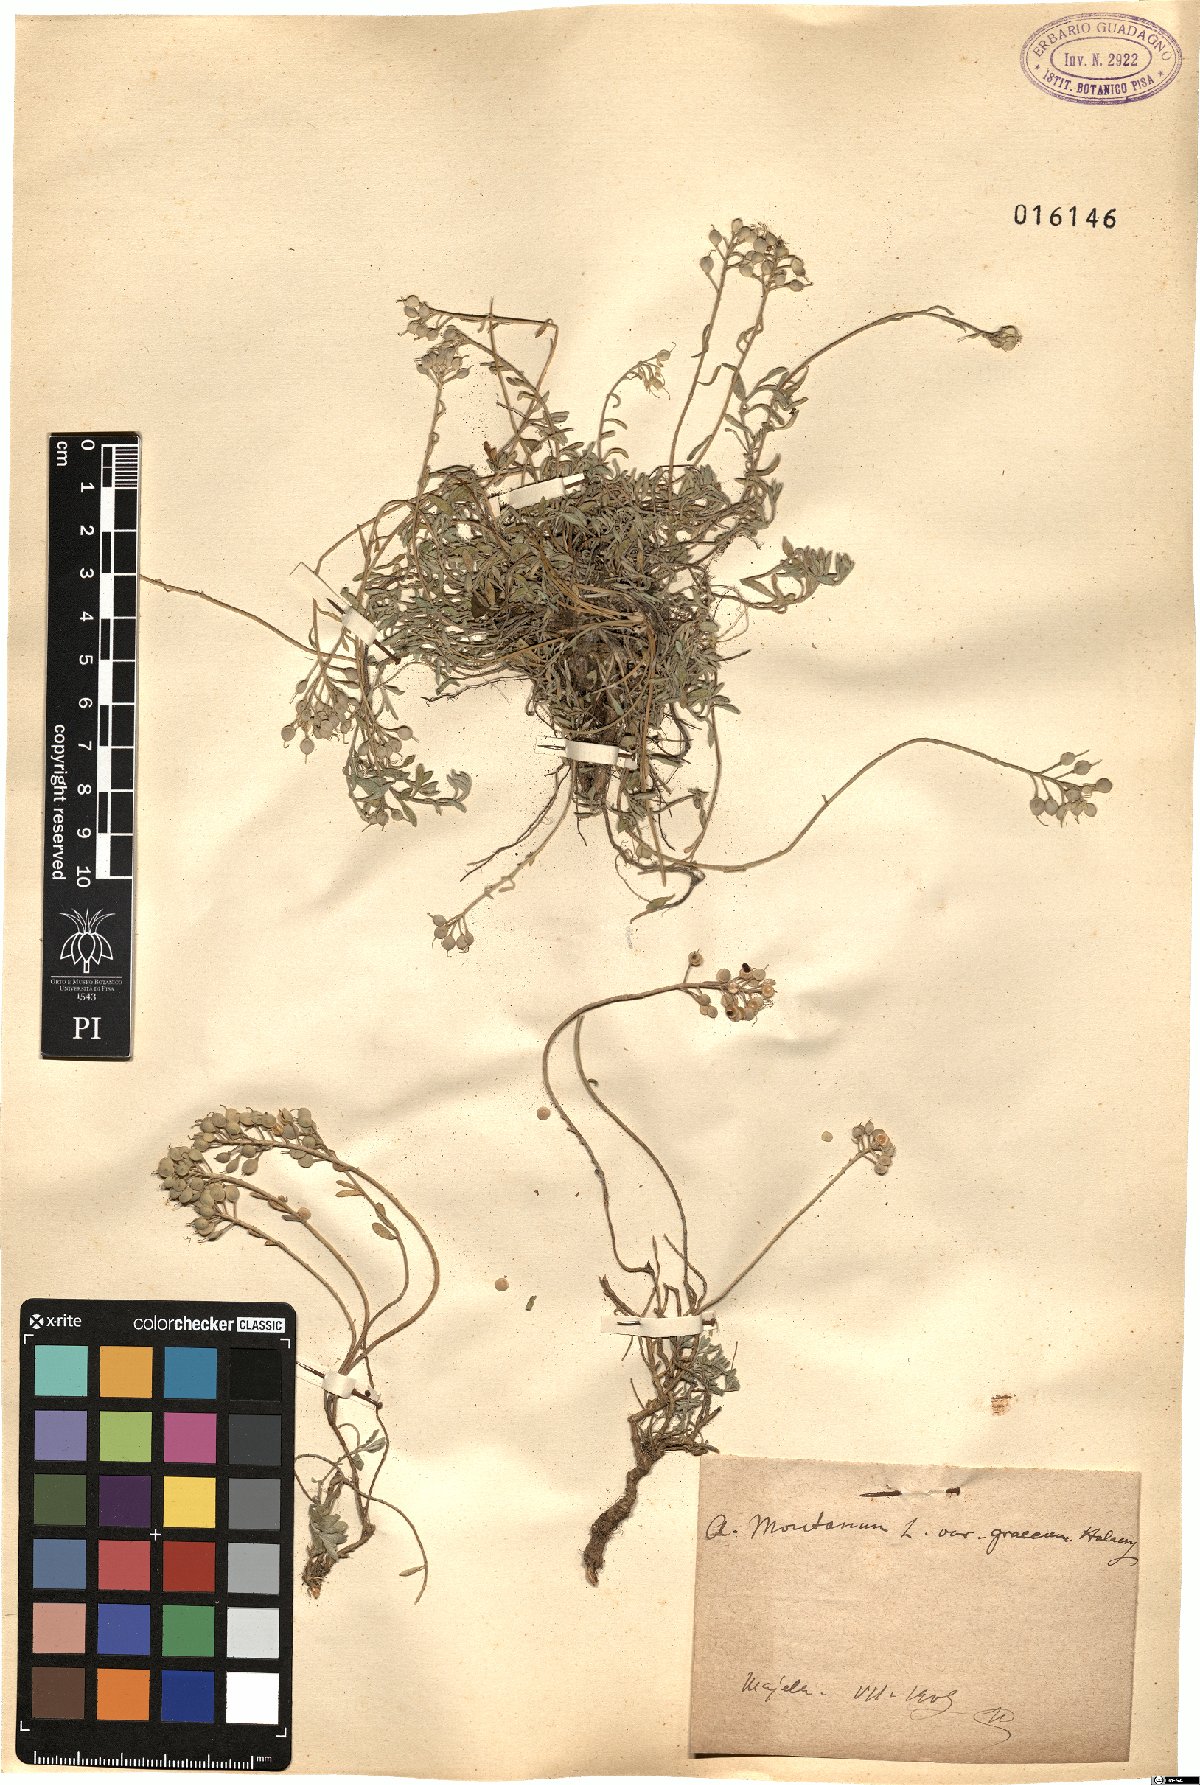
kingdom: Plantae
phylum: Tracheophyta
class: Magnoliopsida
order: Brassicales
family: Brassicaceae
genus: Alyssum
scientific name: Alyssum montanum
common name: Mountain alison
